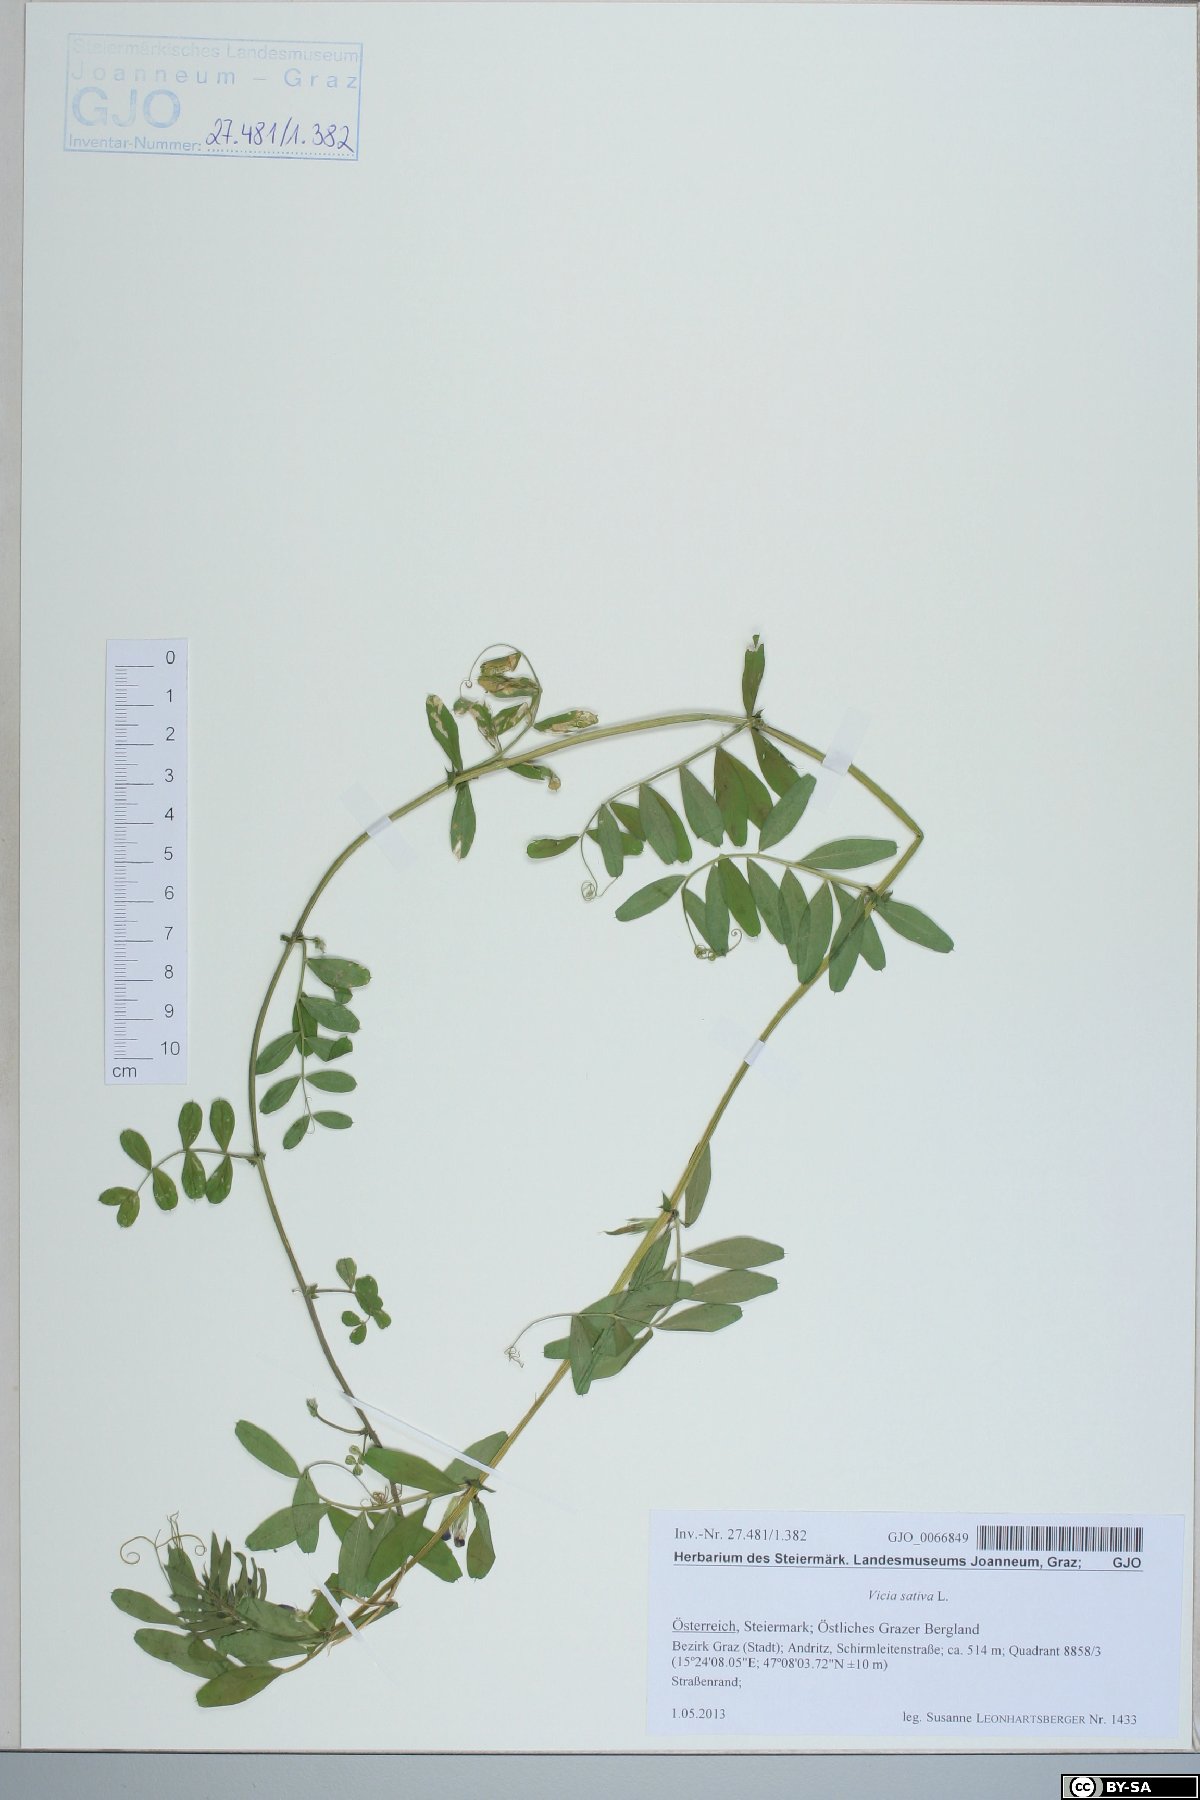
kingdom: Plantae
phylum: Tracheophyta
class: Magnoliopsida
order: Fabales
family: Fabaceae
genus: Vicia
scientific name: Vicia sativa
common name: Garden vetch
